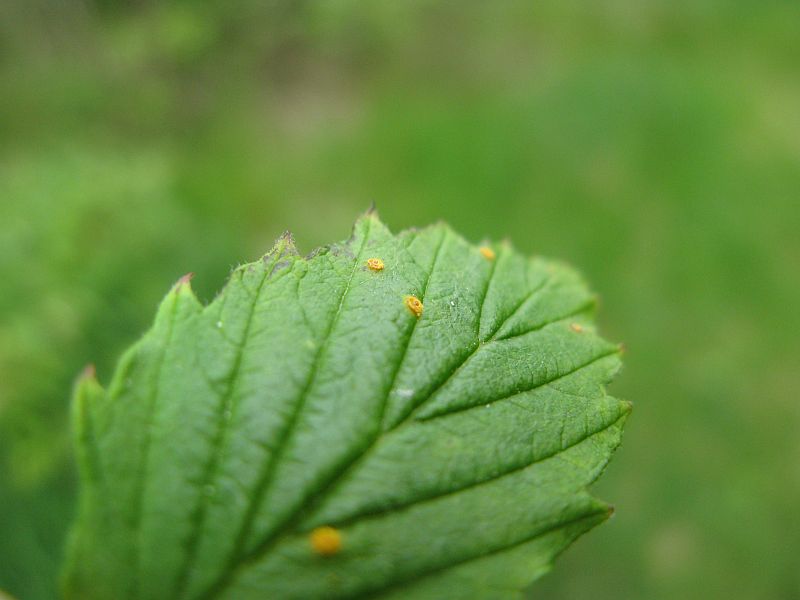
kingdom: Fungi
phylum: Basidiomycota
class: Pucciniomycetes
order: Pucciniales
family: Phragmidiaceae
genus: Phragmidium
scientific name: Phragmidium rubi-idaei
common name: hindbær-flercellerust
